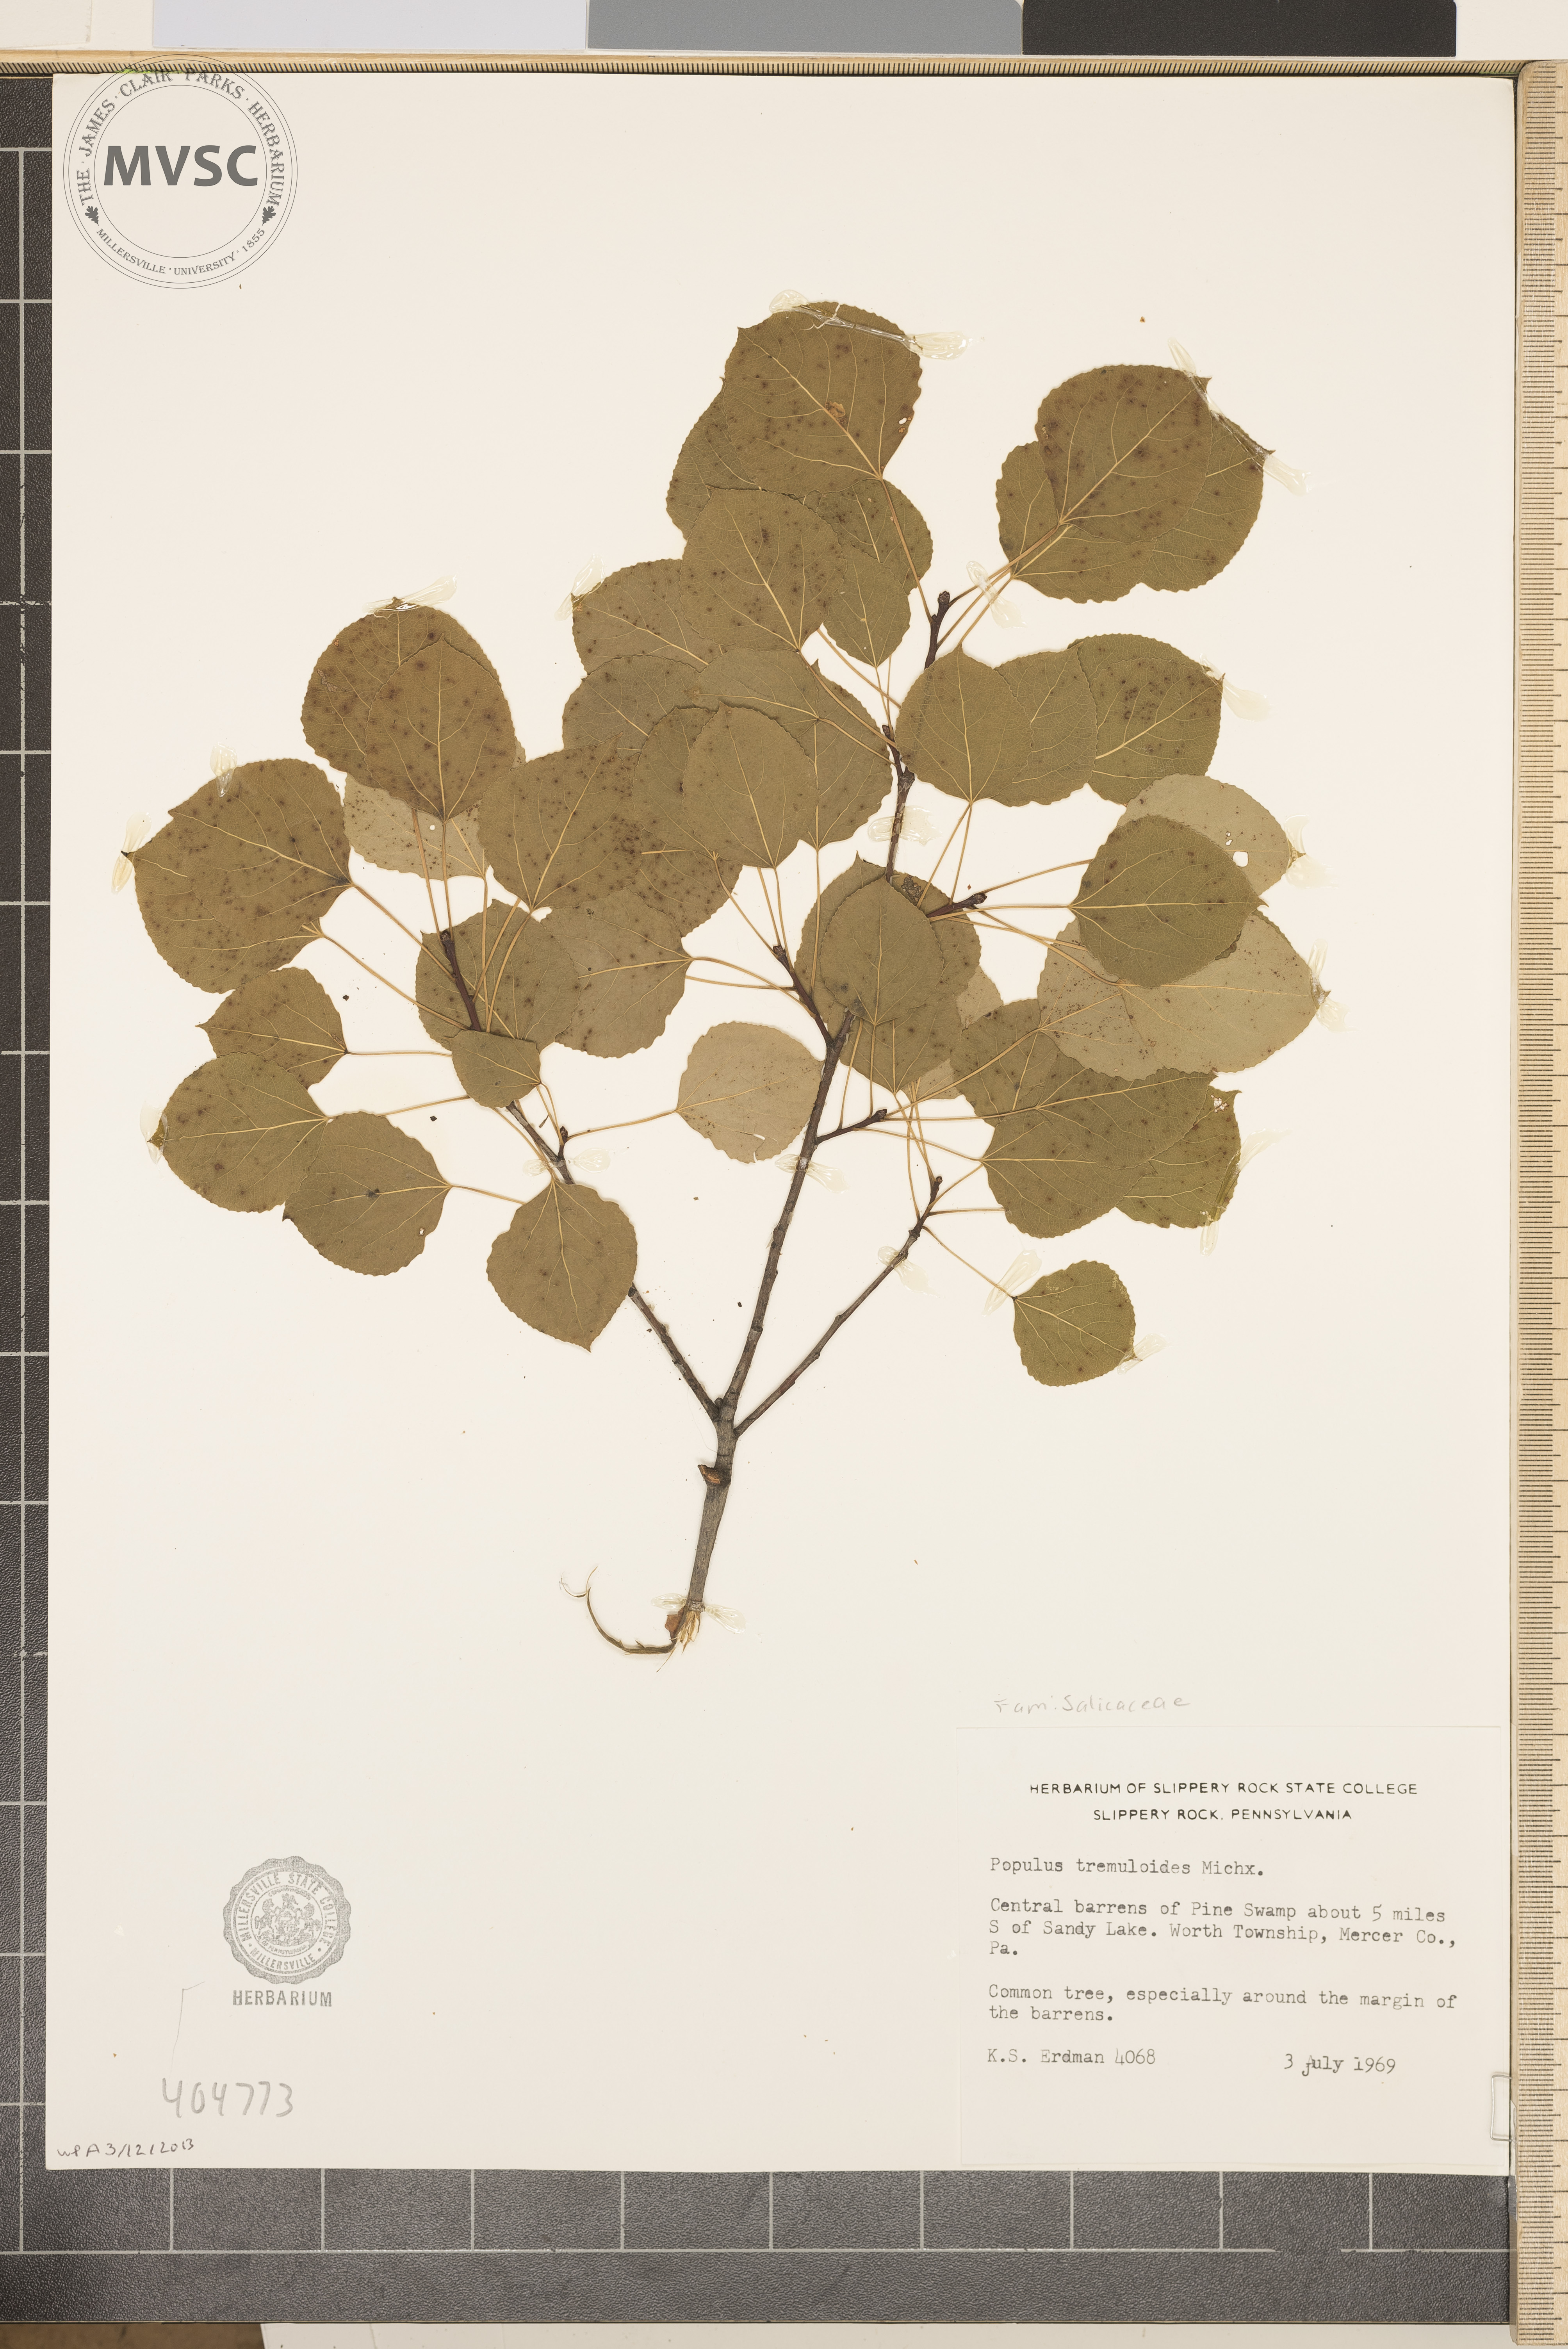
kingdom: Plantae
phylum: Tracheophyta
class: Magnoliopsida
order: Malpighiales
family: Salicaceae
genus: Populus
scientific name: Populus tremuloides
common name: Quaking aspen
